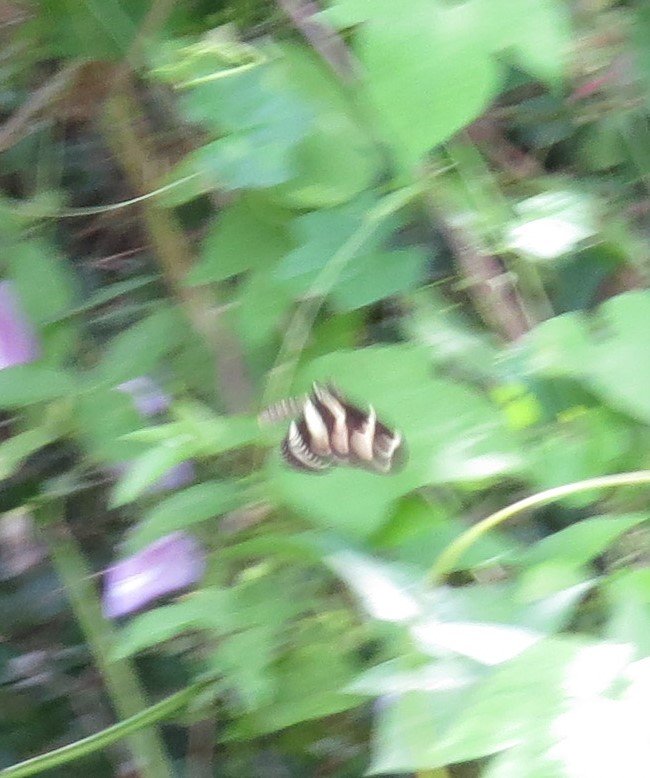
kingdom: Animalia
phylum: Arthropoda
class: Insecta
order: Lepidoptera
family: Nymphalidae
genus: Heliconius
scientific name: Heliconius charithonia
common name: Zebra Longwing
